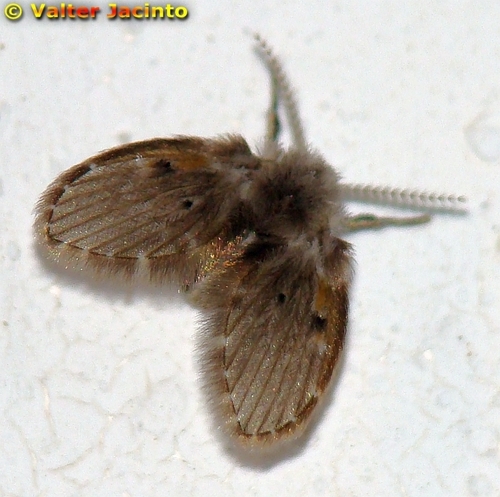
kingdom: Animalia
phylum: Arthropoda
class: Insecta
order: Diptera
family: Psychodidae
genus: Clogmia
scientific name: Clogmia albipunctatus
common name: White-spotted moth fly
